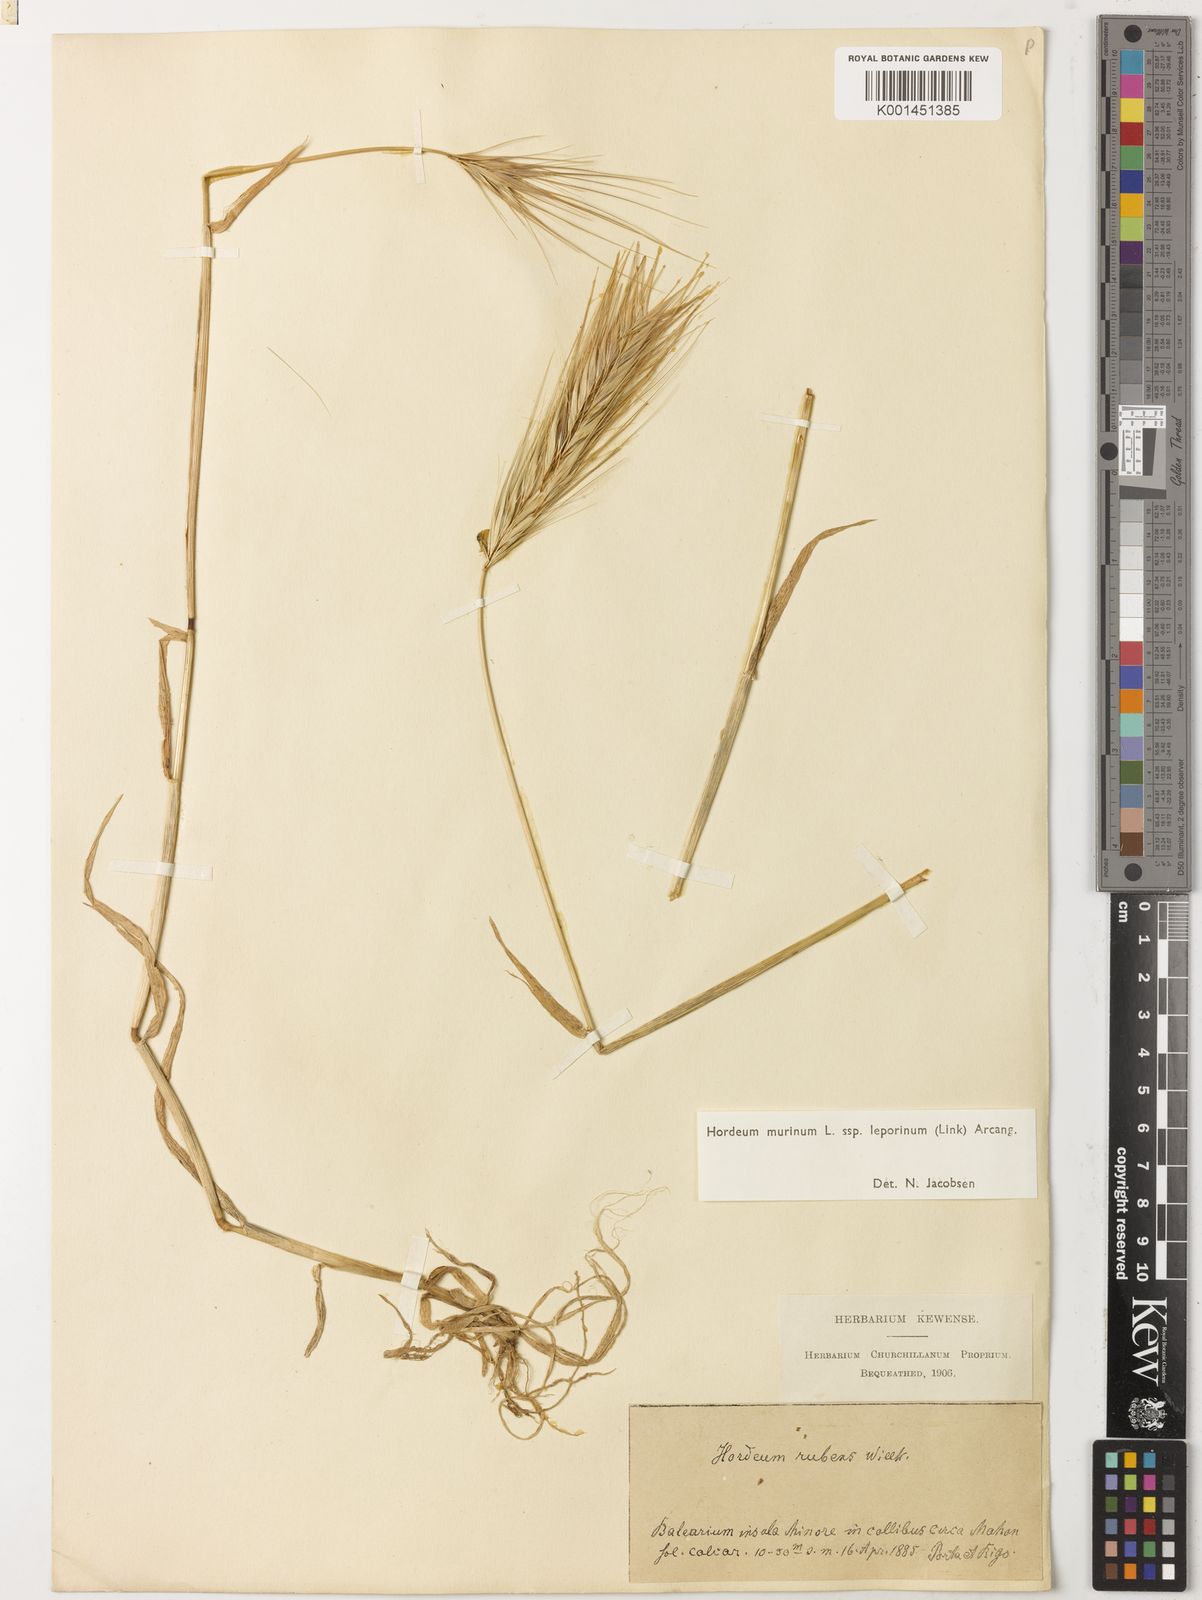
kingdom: Plantae
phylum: Tracheophyta
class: Liliopsida
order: Poales
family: Poaceae
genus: Hordeum
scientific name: Hordeum murinum
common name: Wall barley
